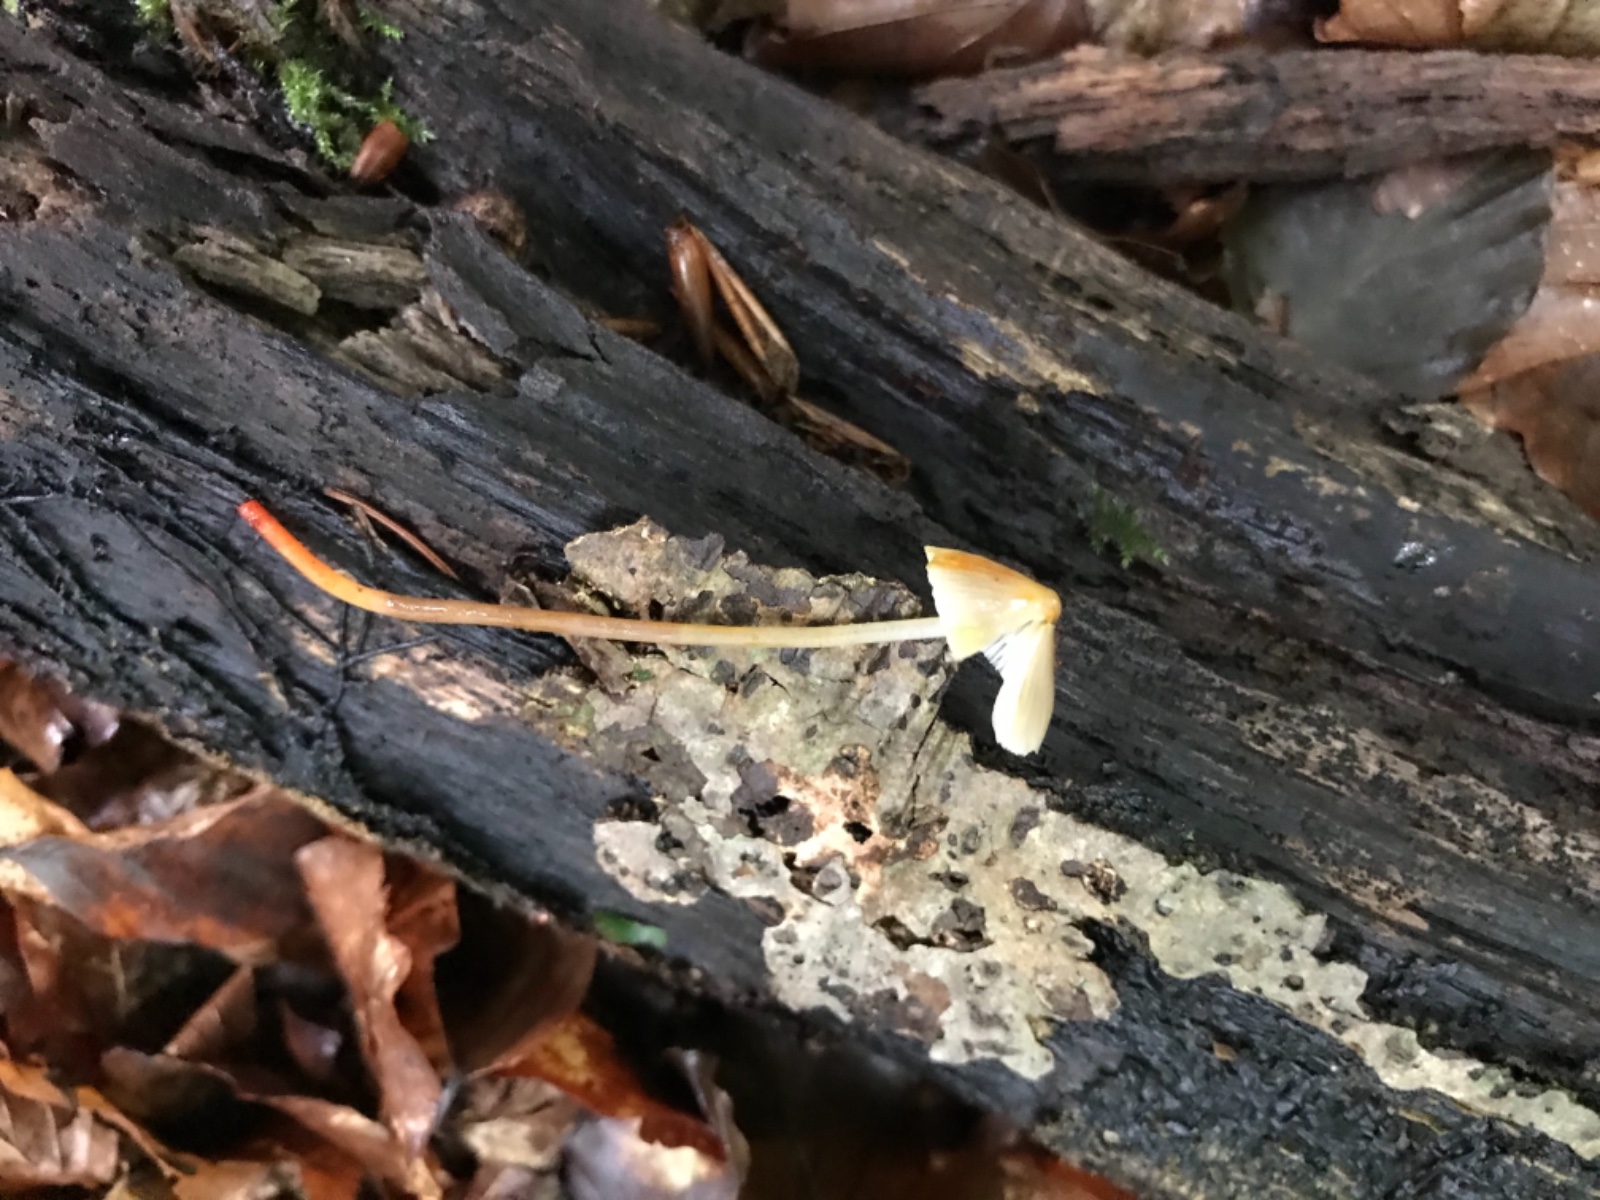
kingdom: Fungi
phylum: Basidiomycota
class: Agaricomycetes
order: Agaricales
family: Mycenaceae
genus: Mycena
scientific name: Mycena crocata
